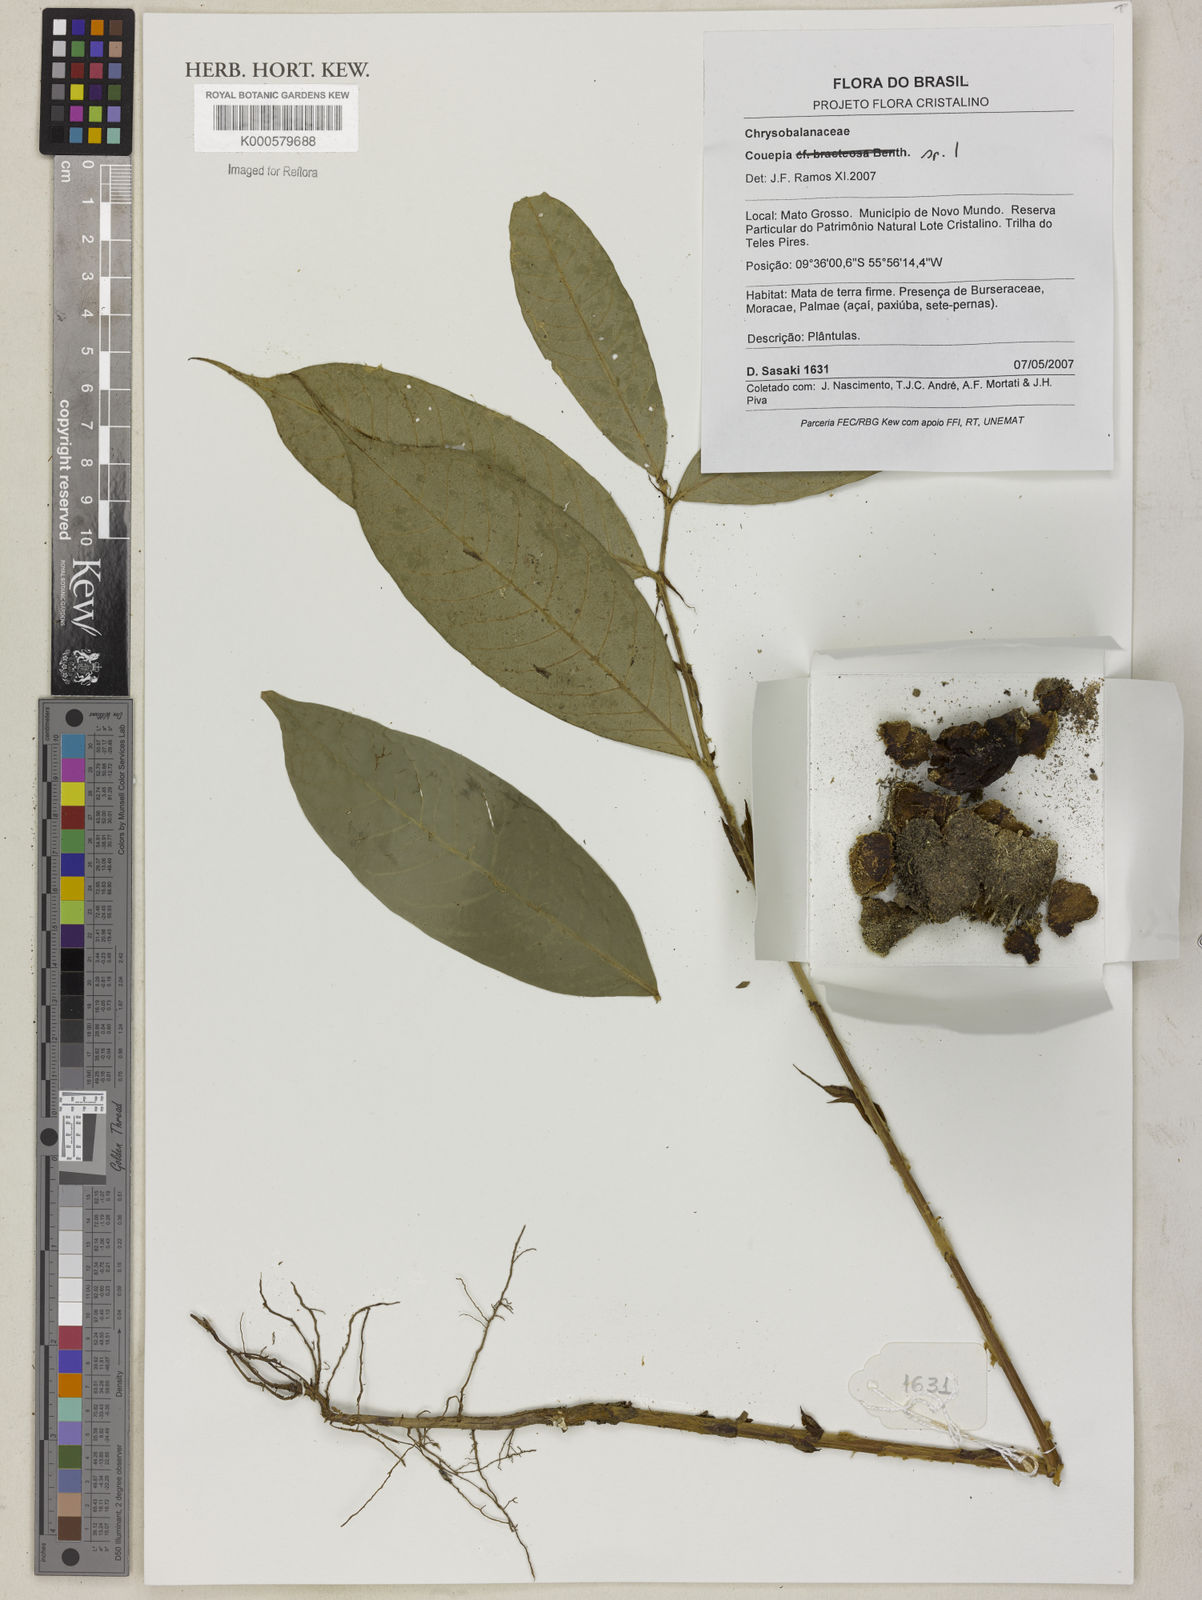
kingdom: Plantae
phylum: Tracheophyta
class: Magnoliopsida
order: Malpighiales
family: Chrysobalanaceae
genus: Couepia
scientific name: Couepia
